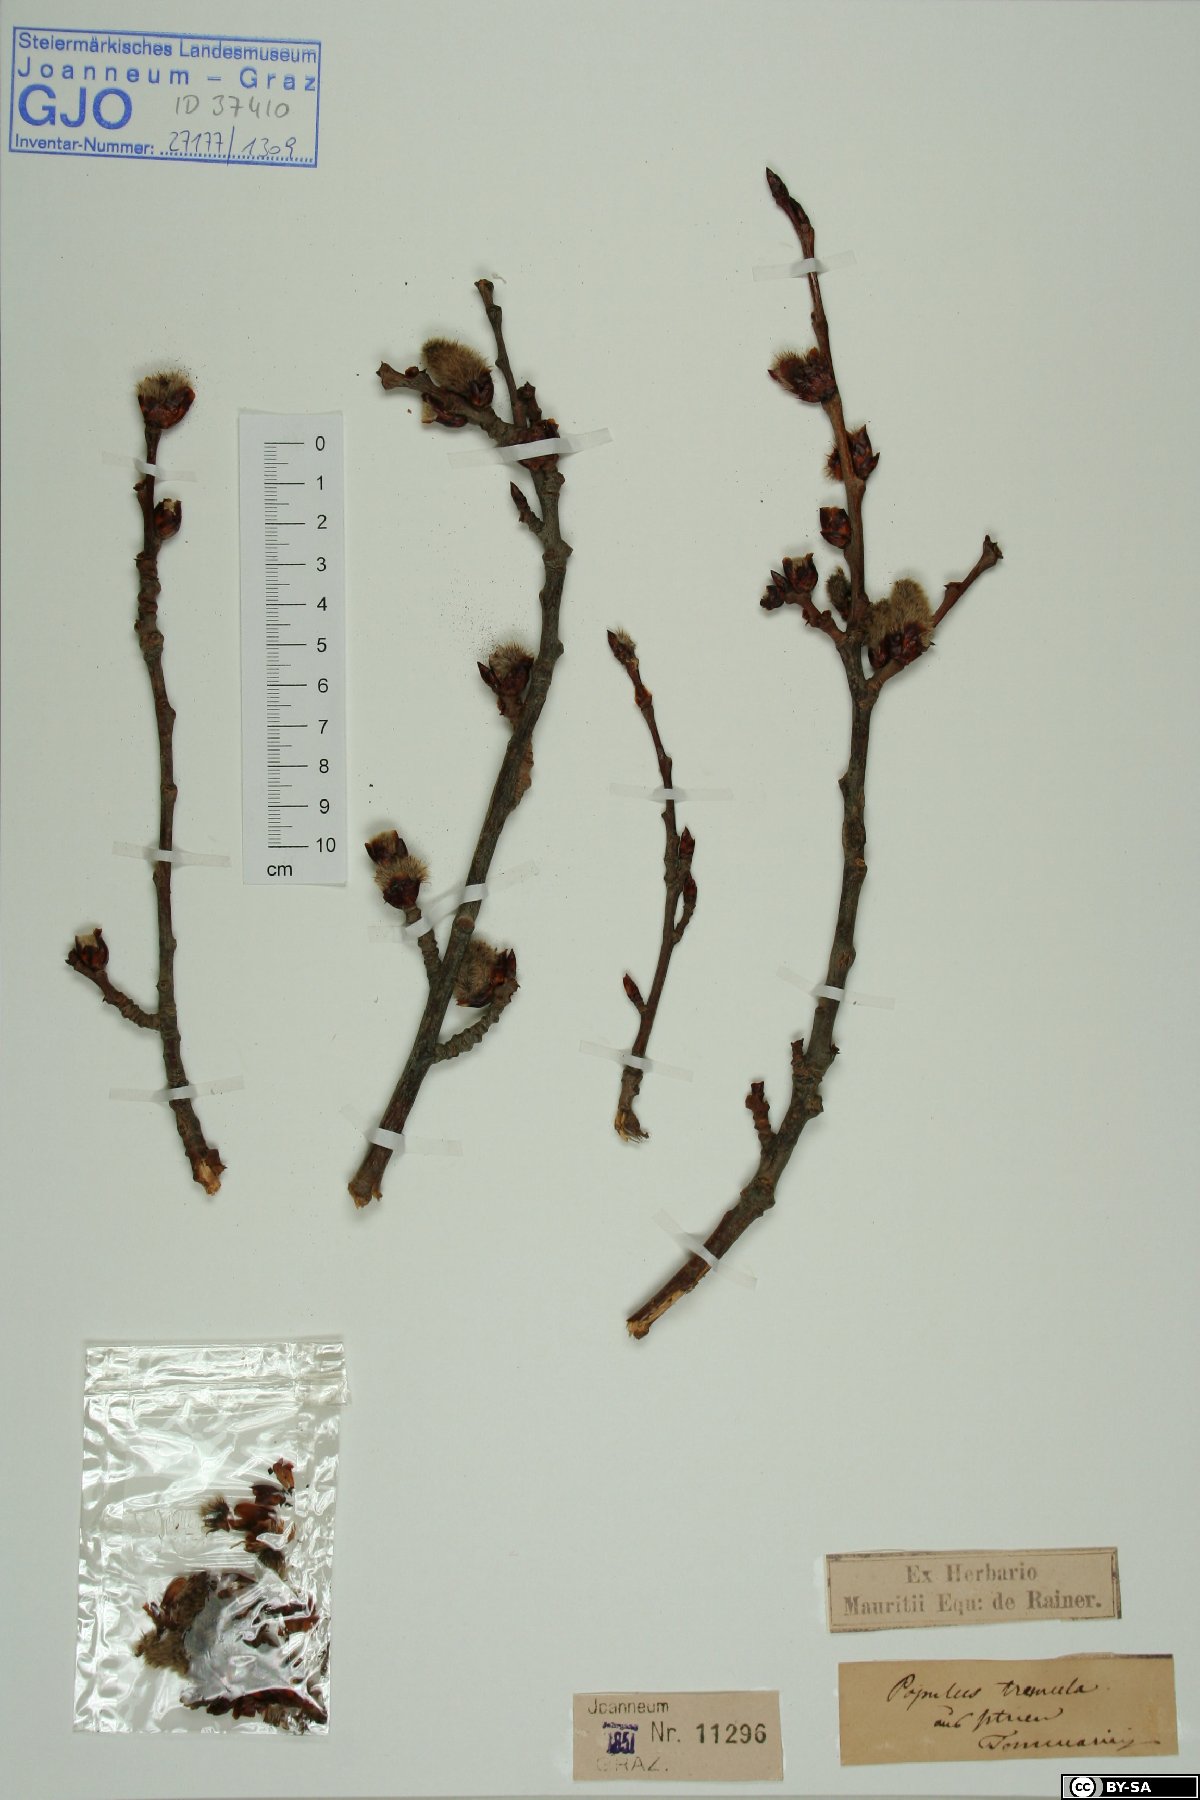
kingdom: Plantae
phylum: Tracheophyta
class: Magnoliopsida
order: Malpighiales
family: Salicaceae
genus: Populus
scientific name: Populus tremula
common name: European aspen
